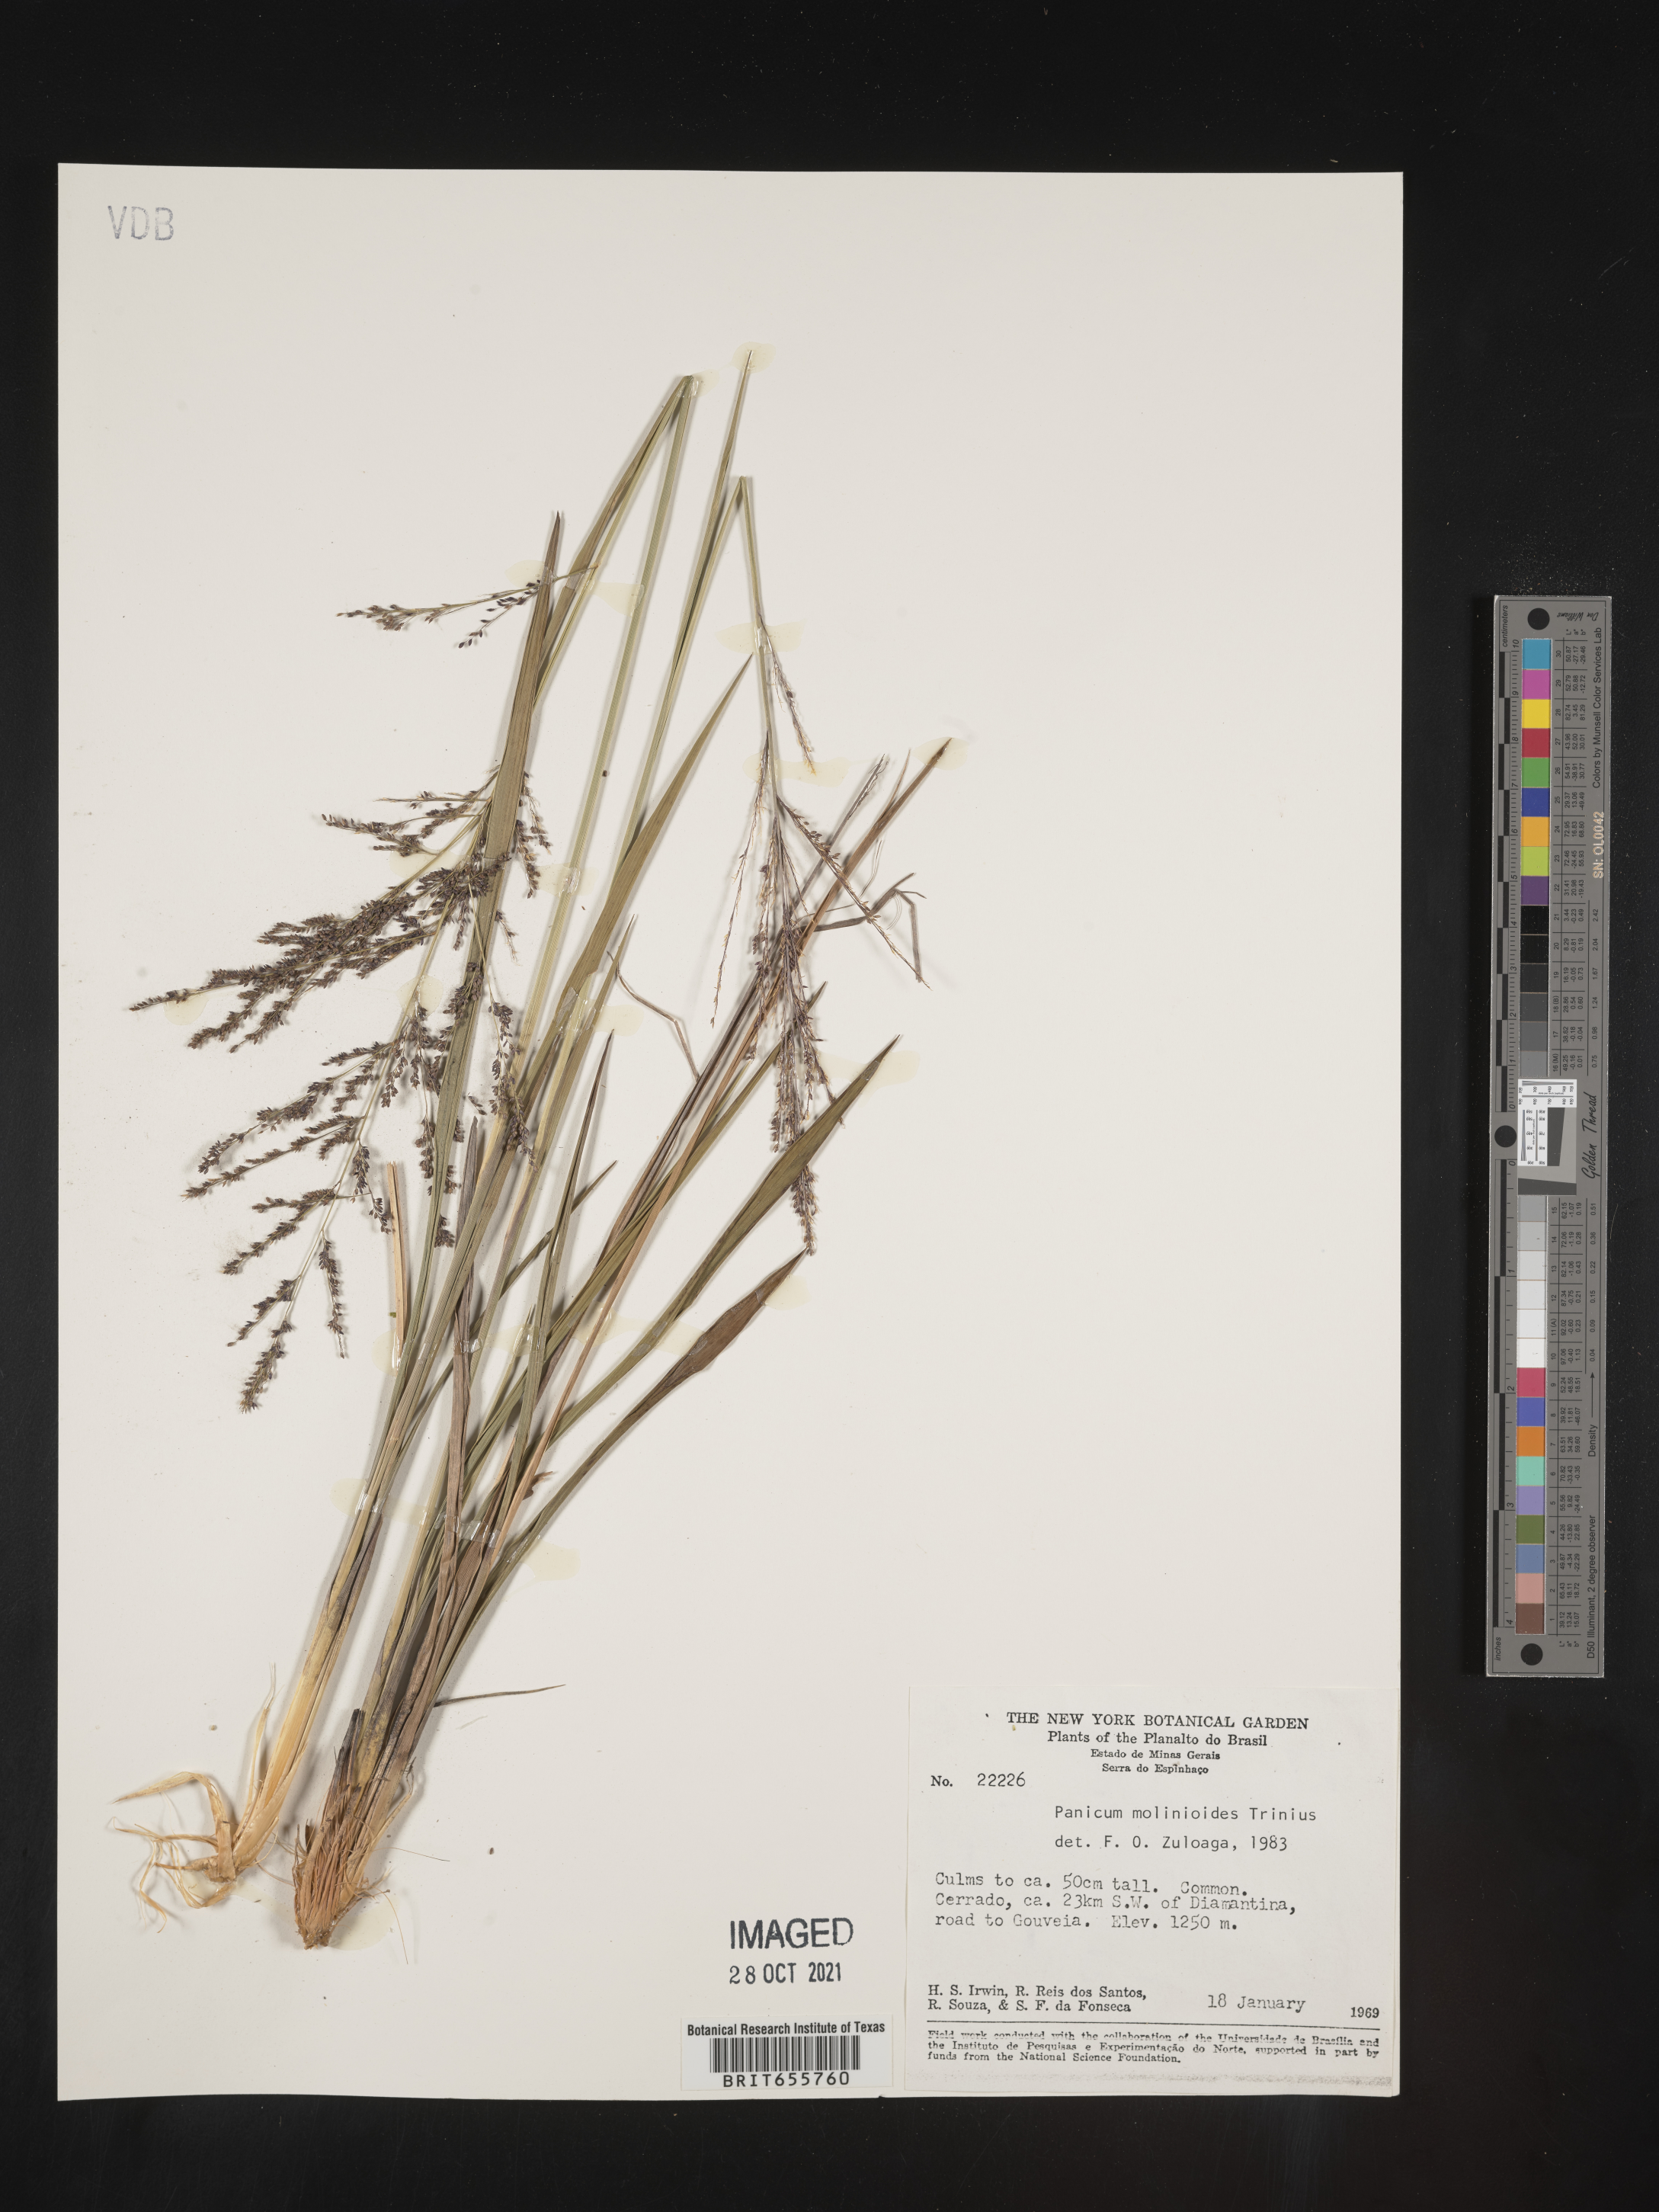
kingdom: Plantae
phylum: Tracheophyta
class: Liliopsida
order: Poales
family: Poaceae
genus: Panicum
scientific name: Panicum
